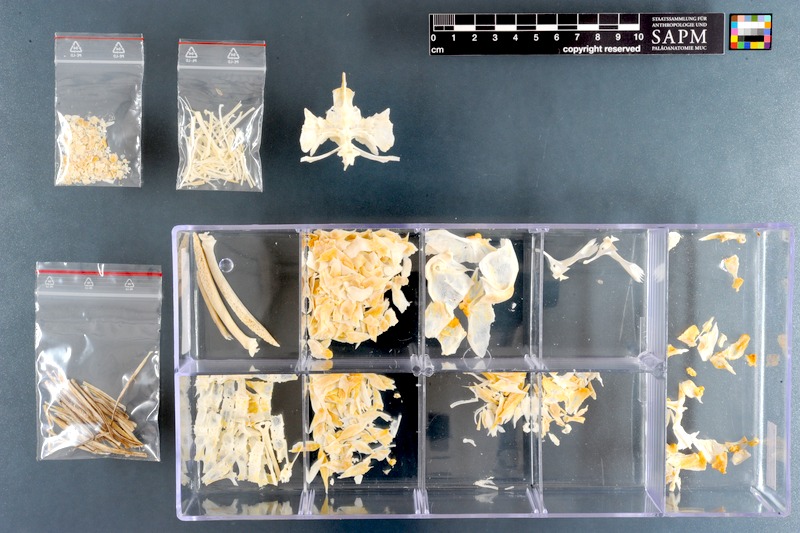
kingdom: Animalia
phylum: Chordata
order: Siluriformes
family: Loricariidae
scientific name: Loricariidae
